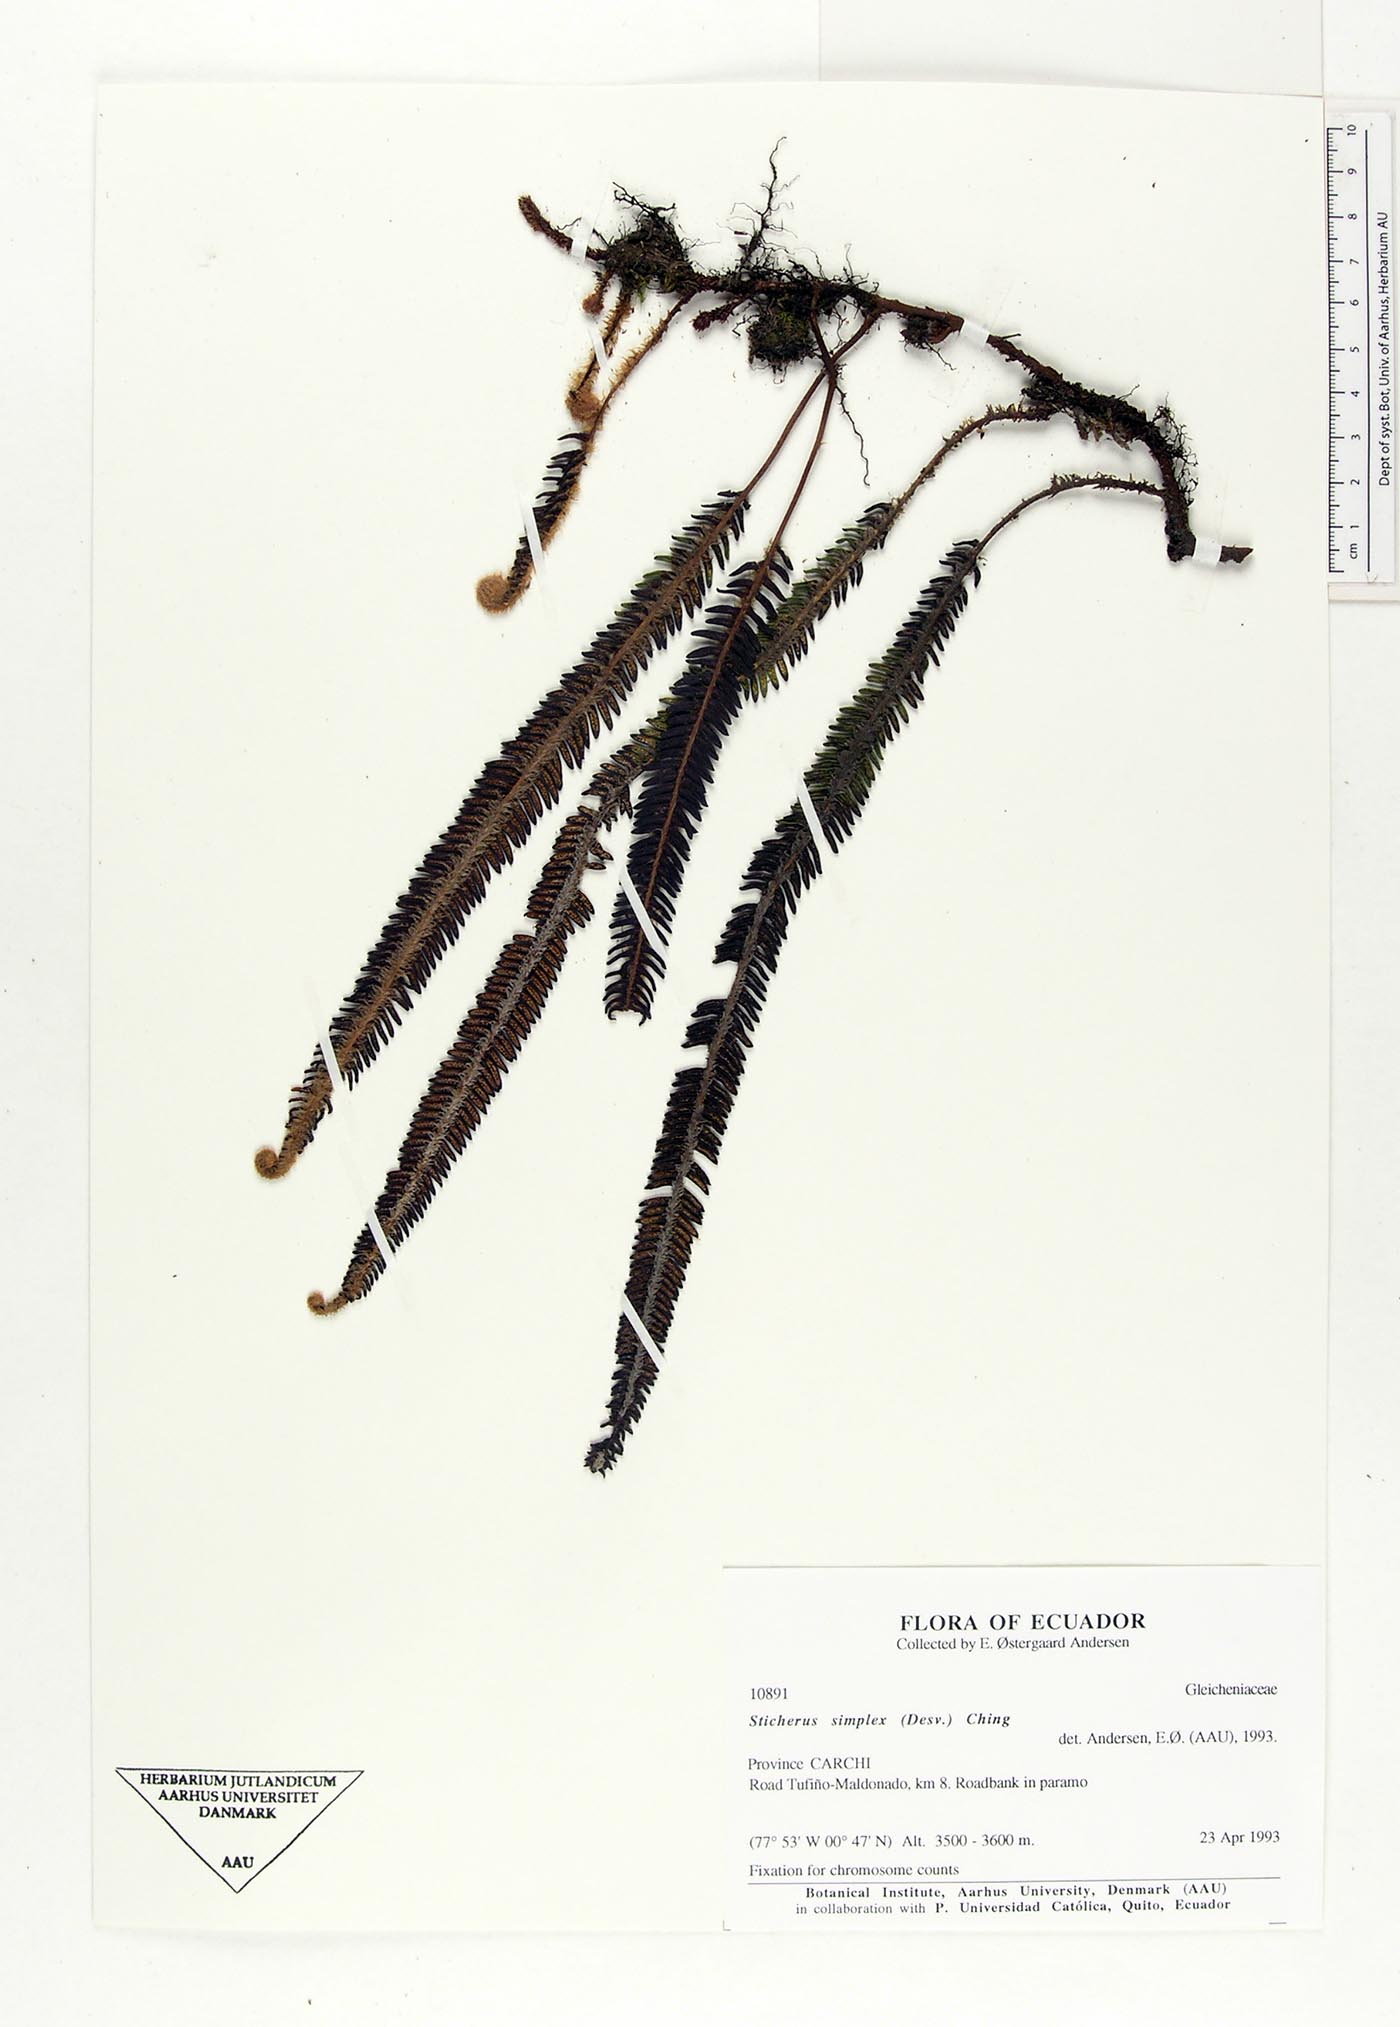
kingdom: Plantae
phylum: Tracheophyta
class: Polypodiopsida
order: Gleicheniales
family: Gleicheniaceae
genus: Sticherus
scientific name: Sticherus simplex
